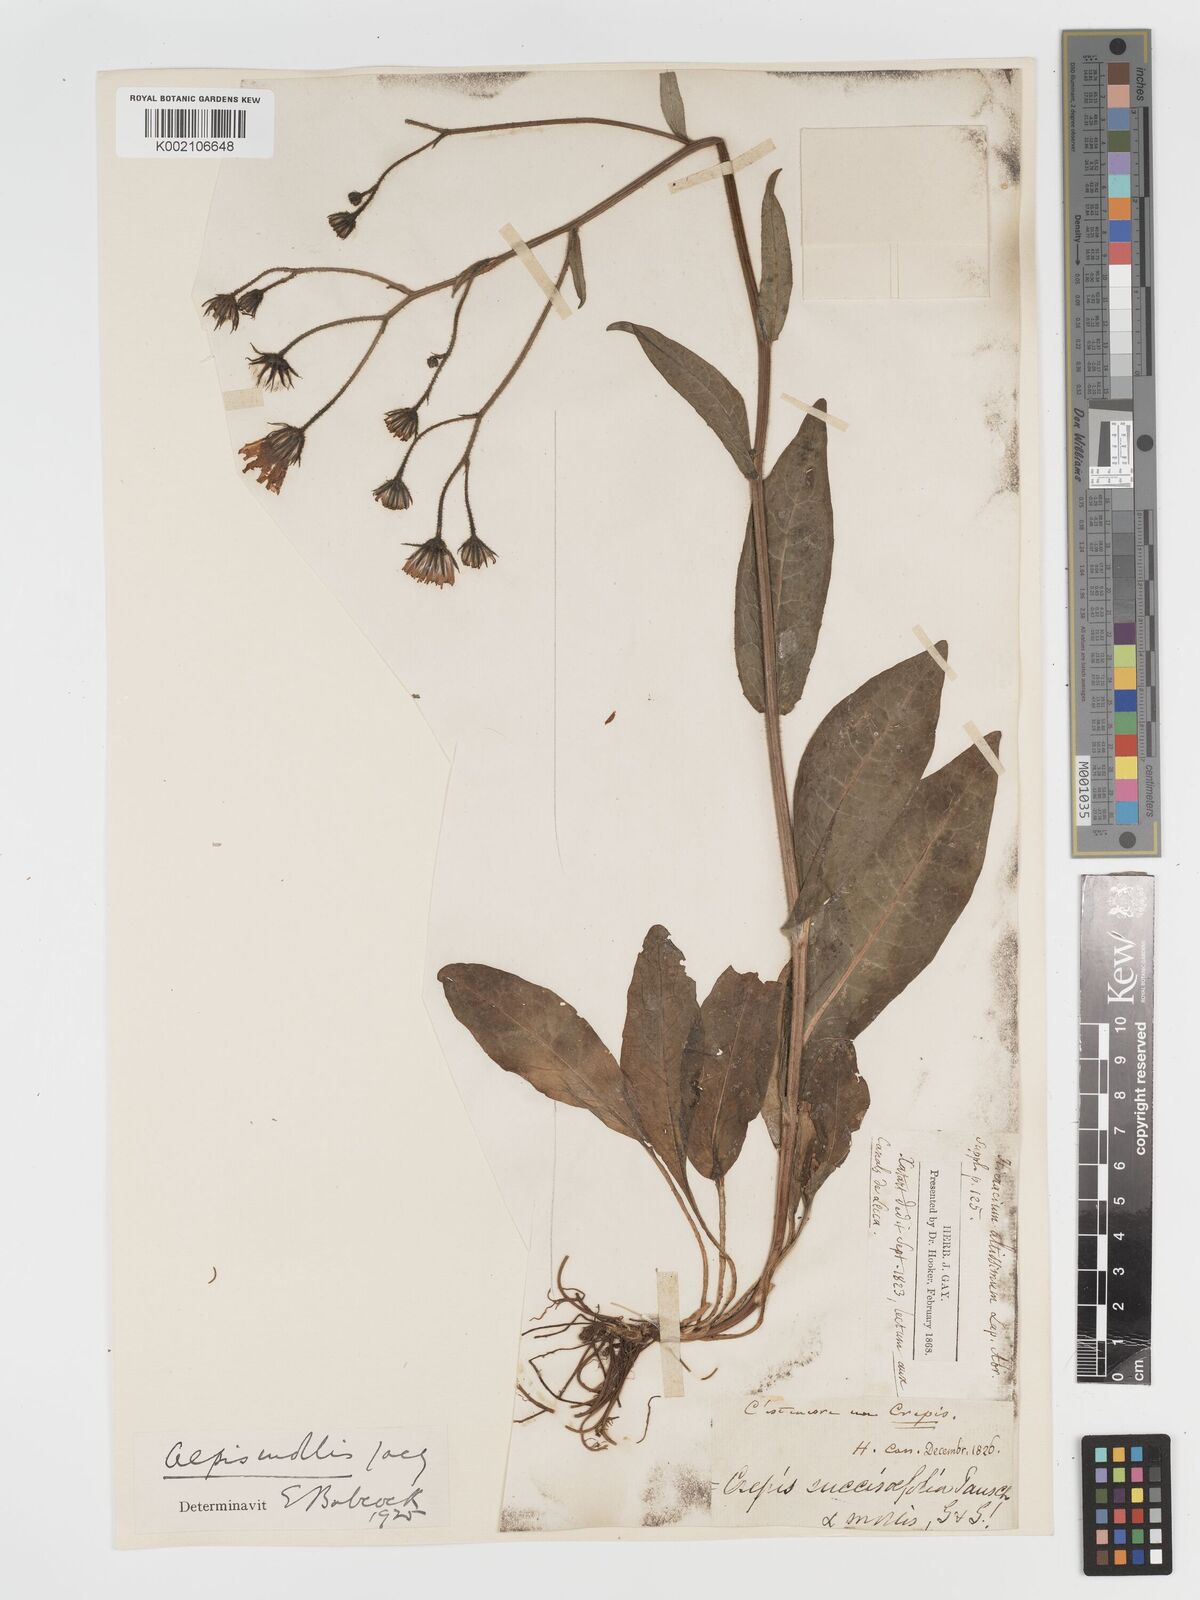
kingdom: Plantae
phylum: Tracheophyta
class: Magnoliopsida
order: Asterales
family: Asteraceae
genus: Crepis
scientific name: Crepis mollis
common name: Northern hawk's-beard
